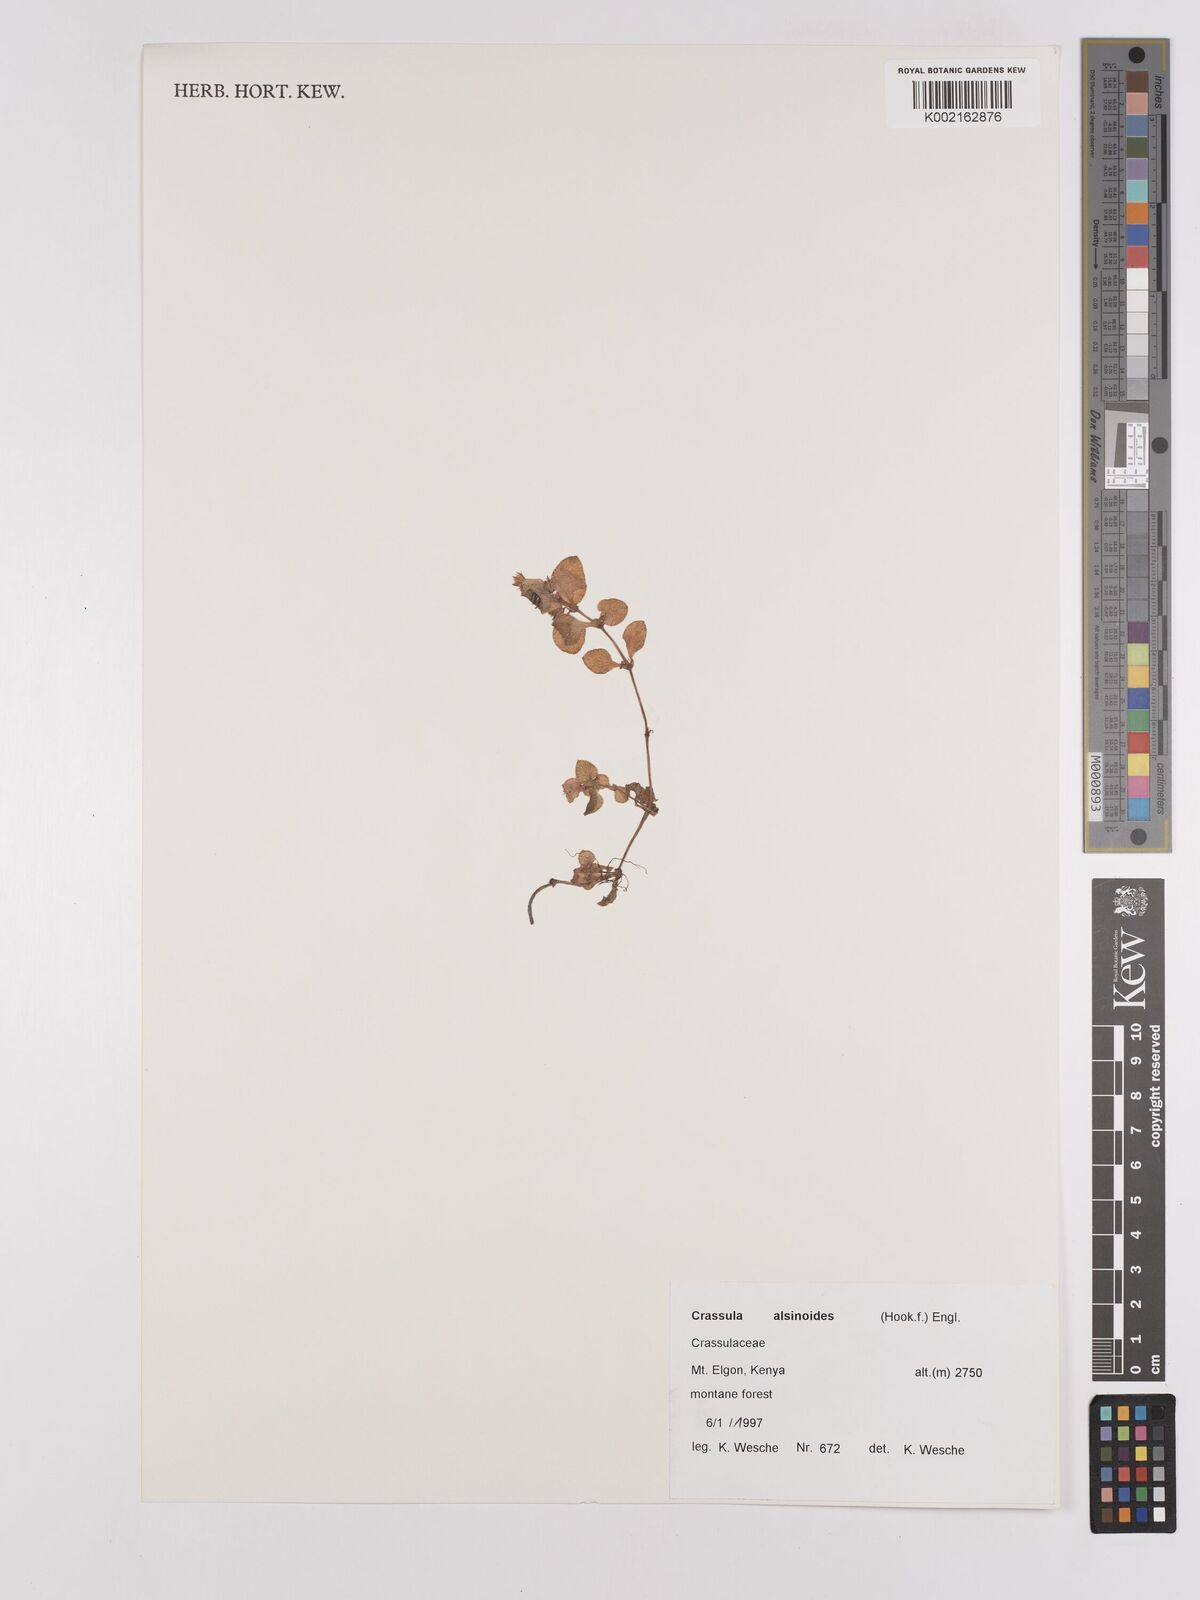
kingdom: Plantae
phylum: Tracheophyta
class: Magnoliopsida
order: Saxifragales
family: Crassulaceae
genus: Crassula
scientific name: Crassula alsinoides
